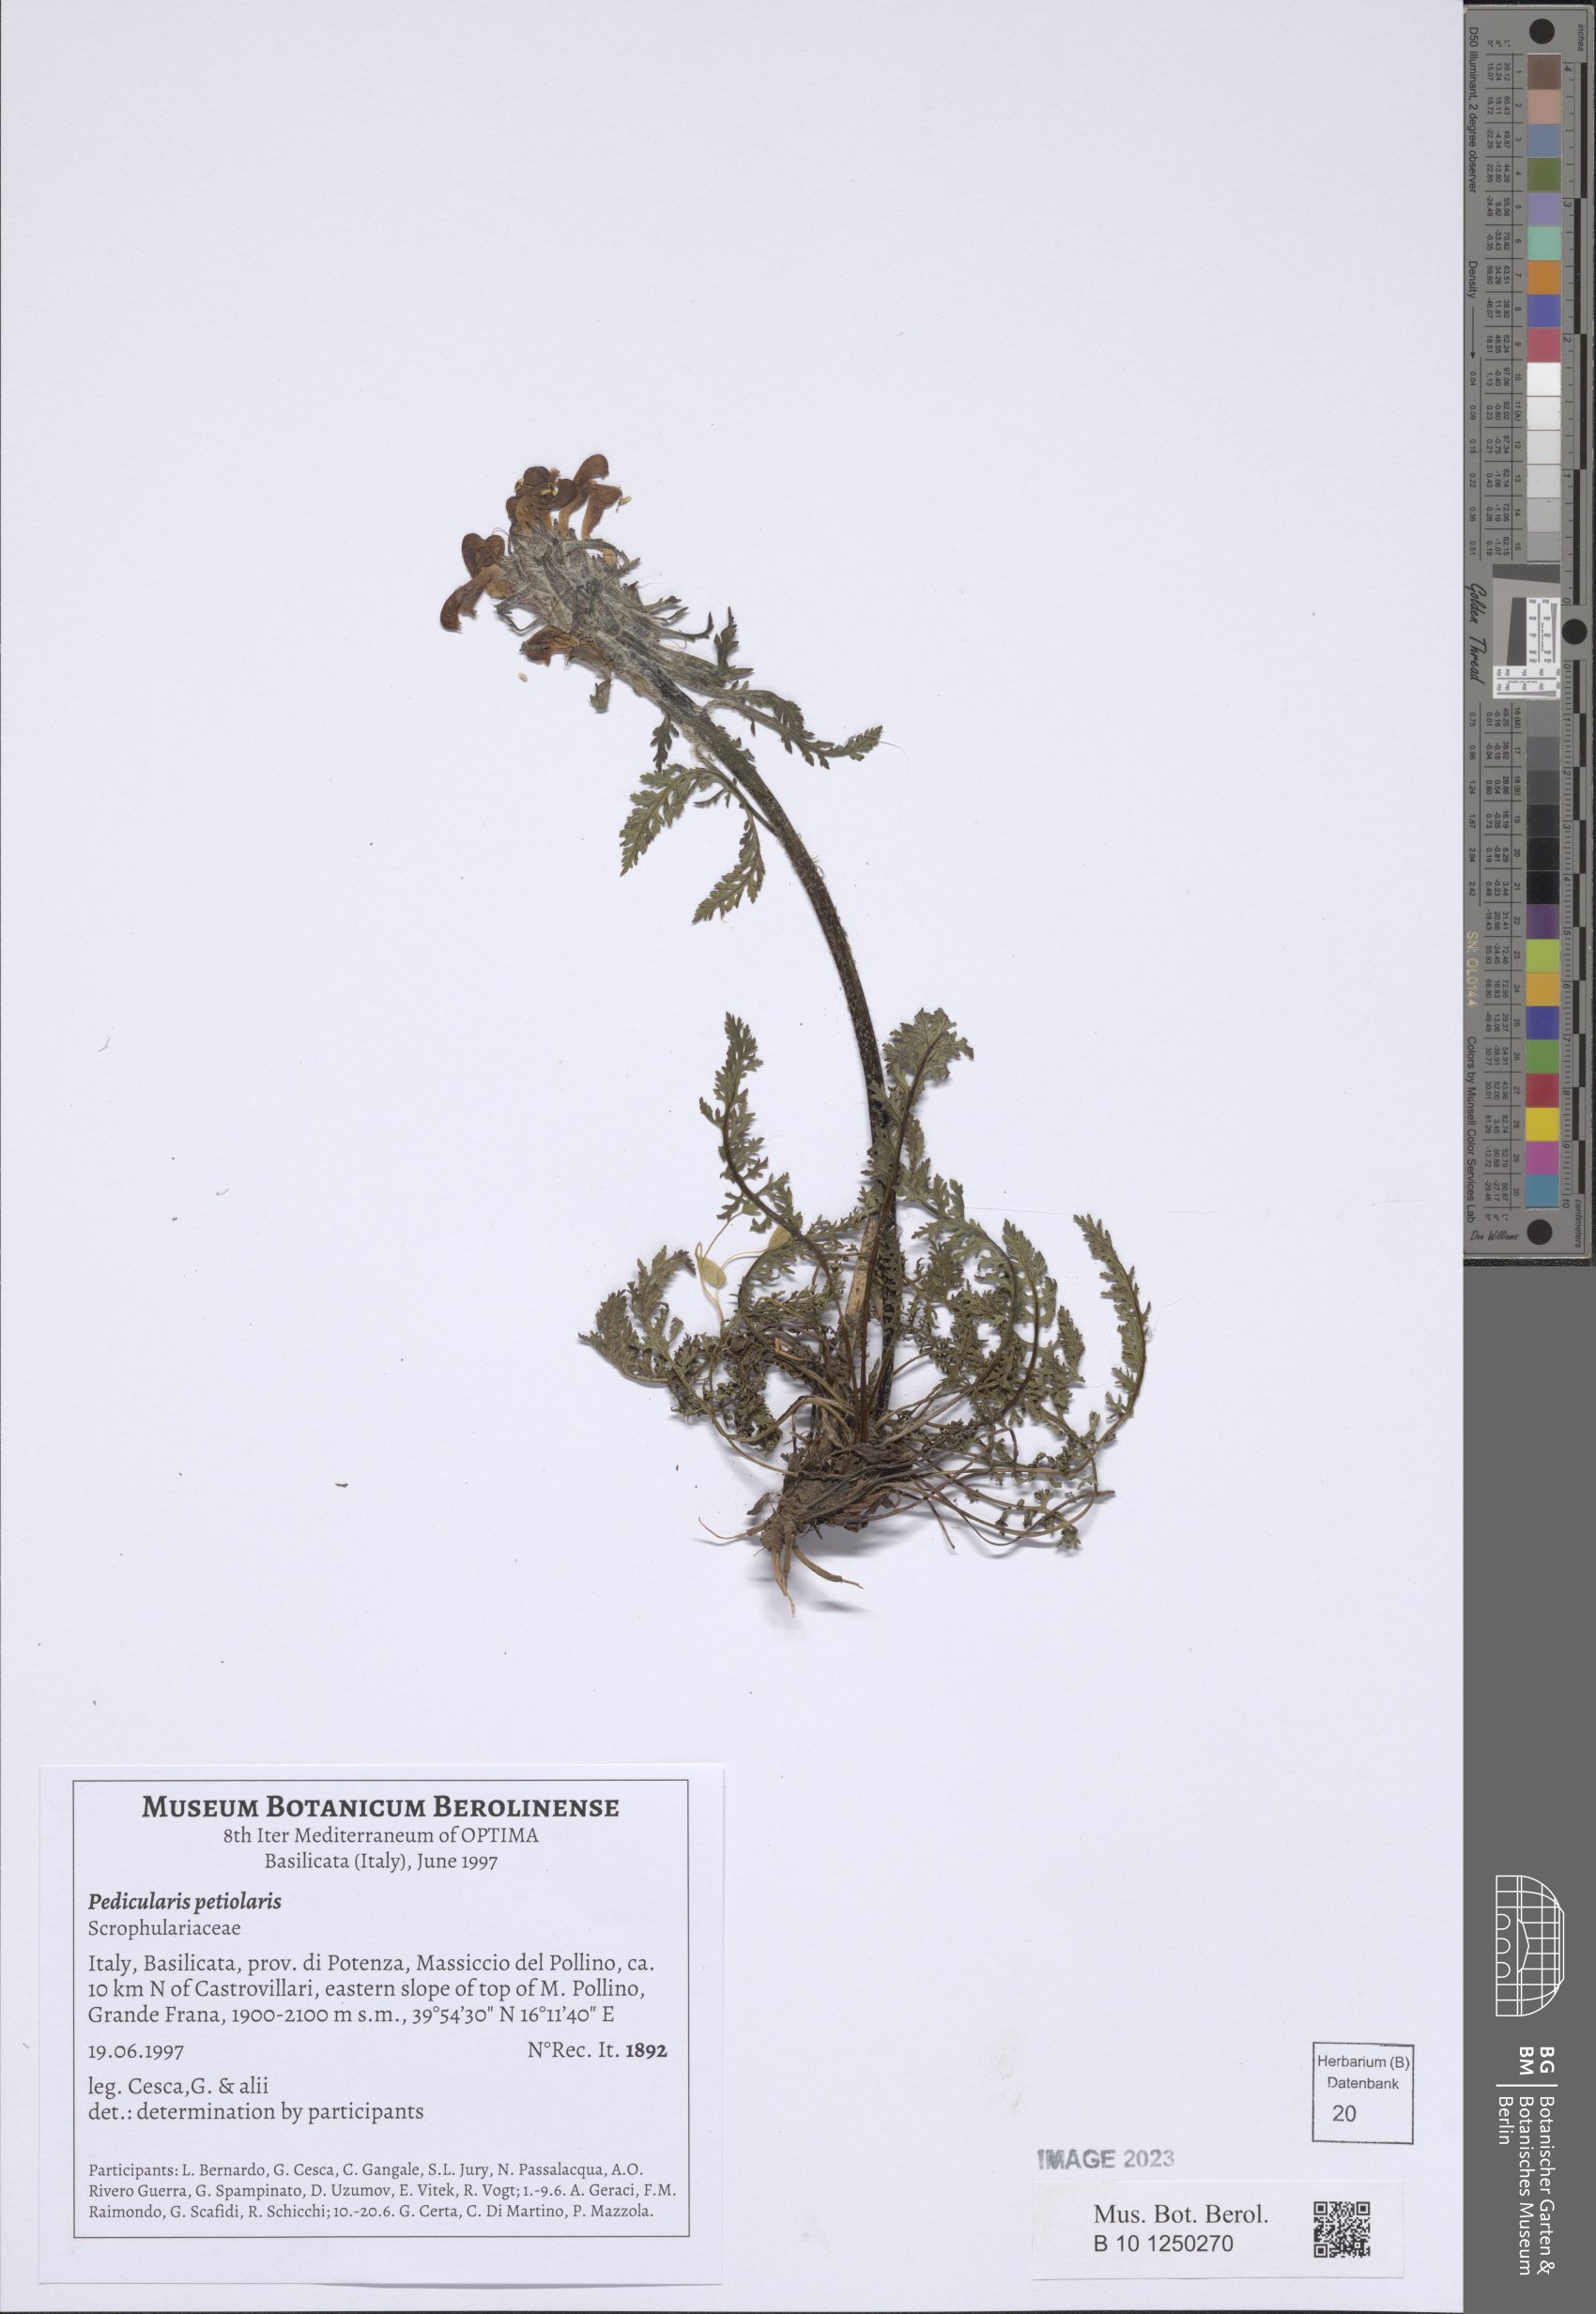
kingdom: Plantae
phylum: Tracheophyta
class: Magnoliopsida
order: Lamiales
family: Orobanchaceae
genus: Pedicularis
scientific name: Pedicularis petiolaris
